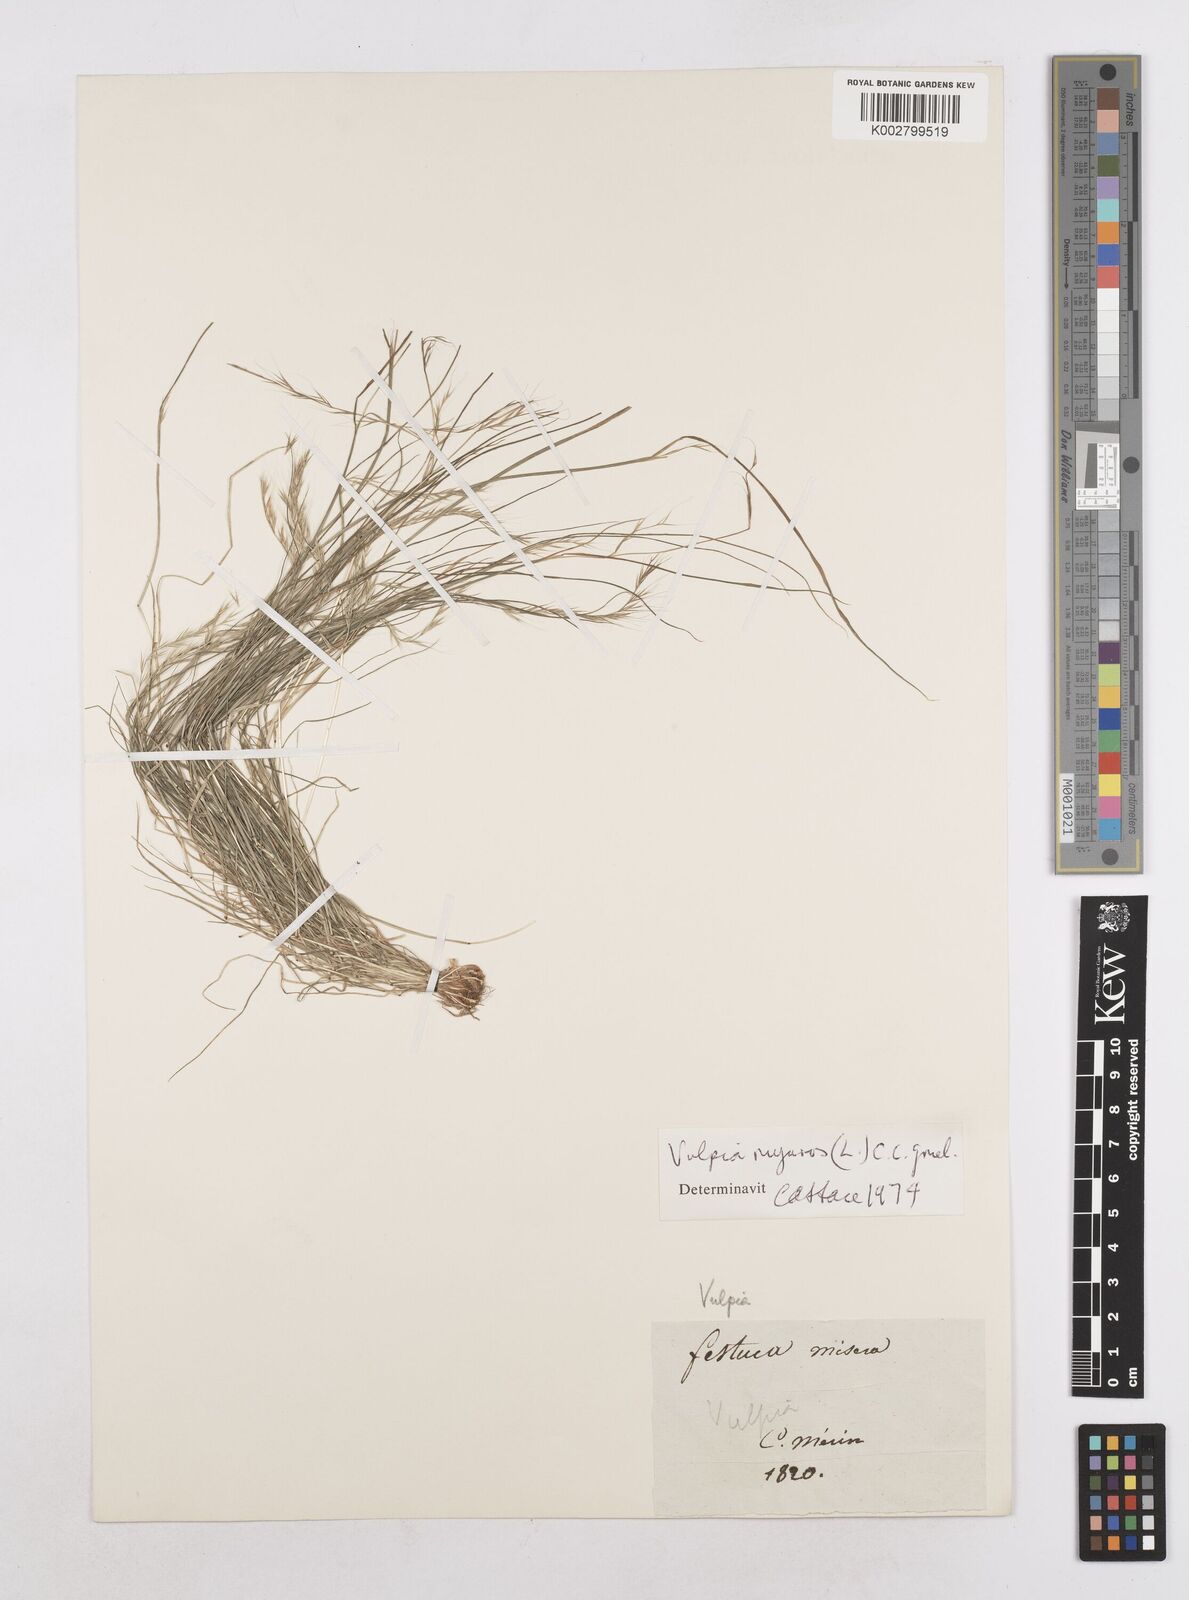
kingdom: Plantae
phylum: Tracheophyta
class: Liliopsida
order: Poales
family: Poaceae
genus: Festuca
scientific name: Festuca myuros
